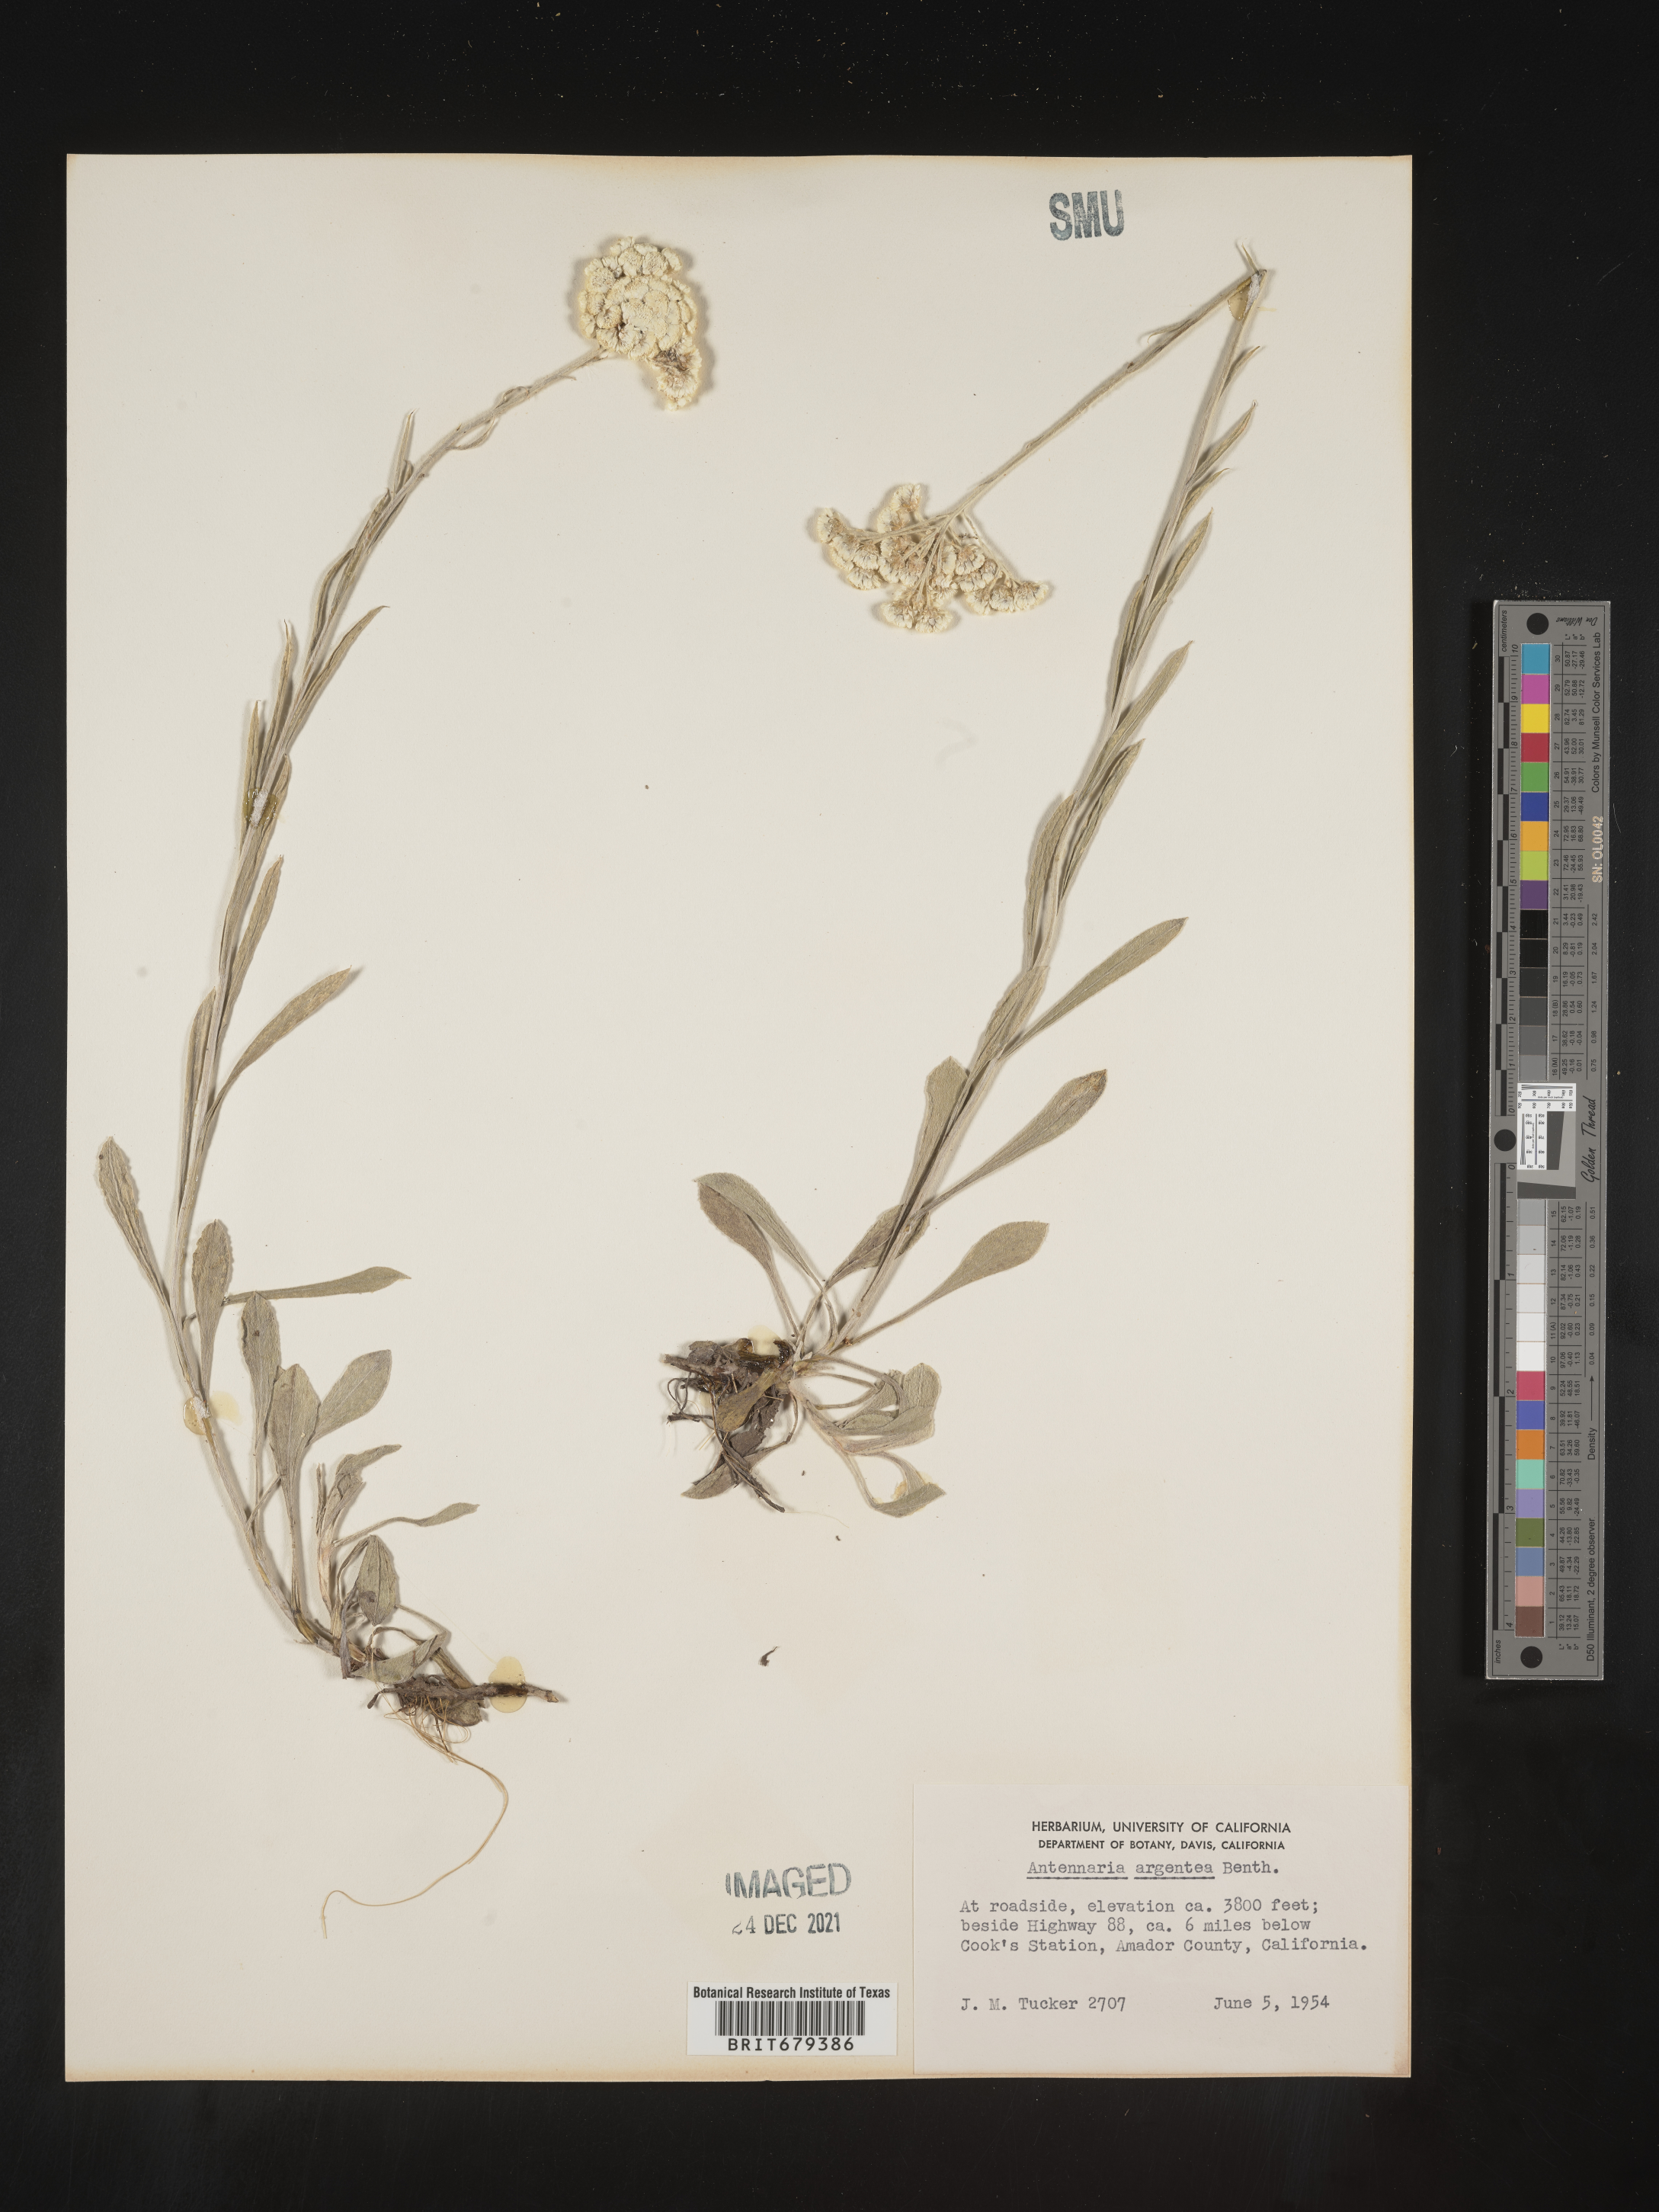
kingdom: Plantae
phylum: Tracheophyta
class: Magnoliopsida
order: Asterales
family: Asteraceae
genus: Antennaria
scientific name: Antennaria argentea
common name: Silver pussytoes
